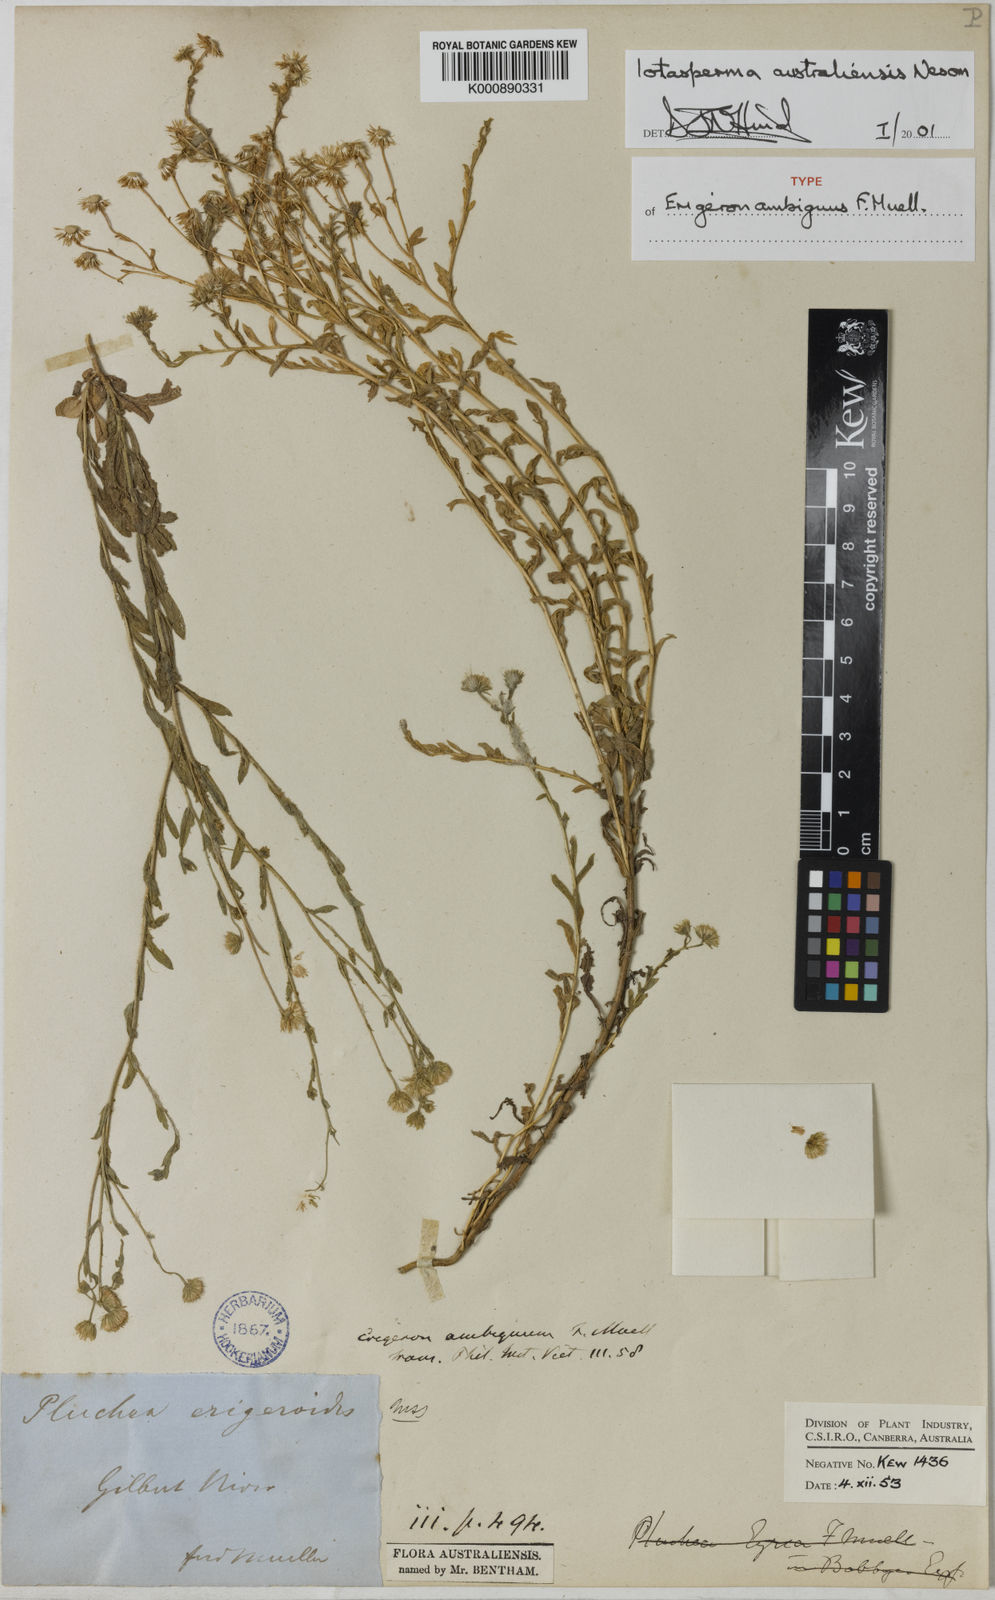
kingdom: Plantae
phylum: Tracheophyta
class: Magnoliopsida
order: Asterales
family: Asteraceae
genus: Iotasperma
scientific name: Iotasperma australiensis
